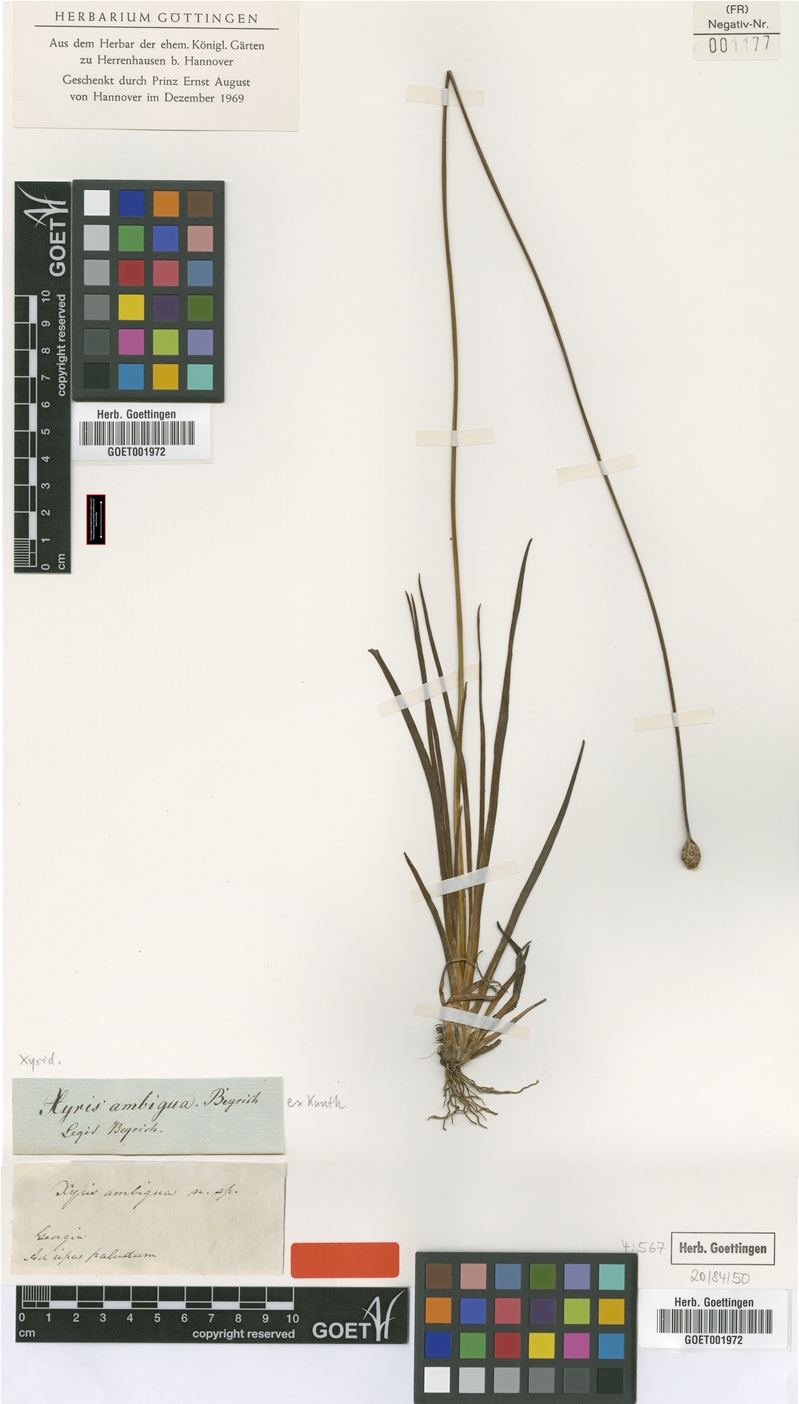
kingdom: Plantae
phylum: Tracheophyta
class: Liliopsida
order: Poales
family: Xyridaceae
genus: Xyris
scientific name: Xyris ambigua
